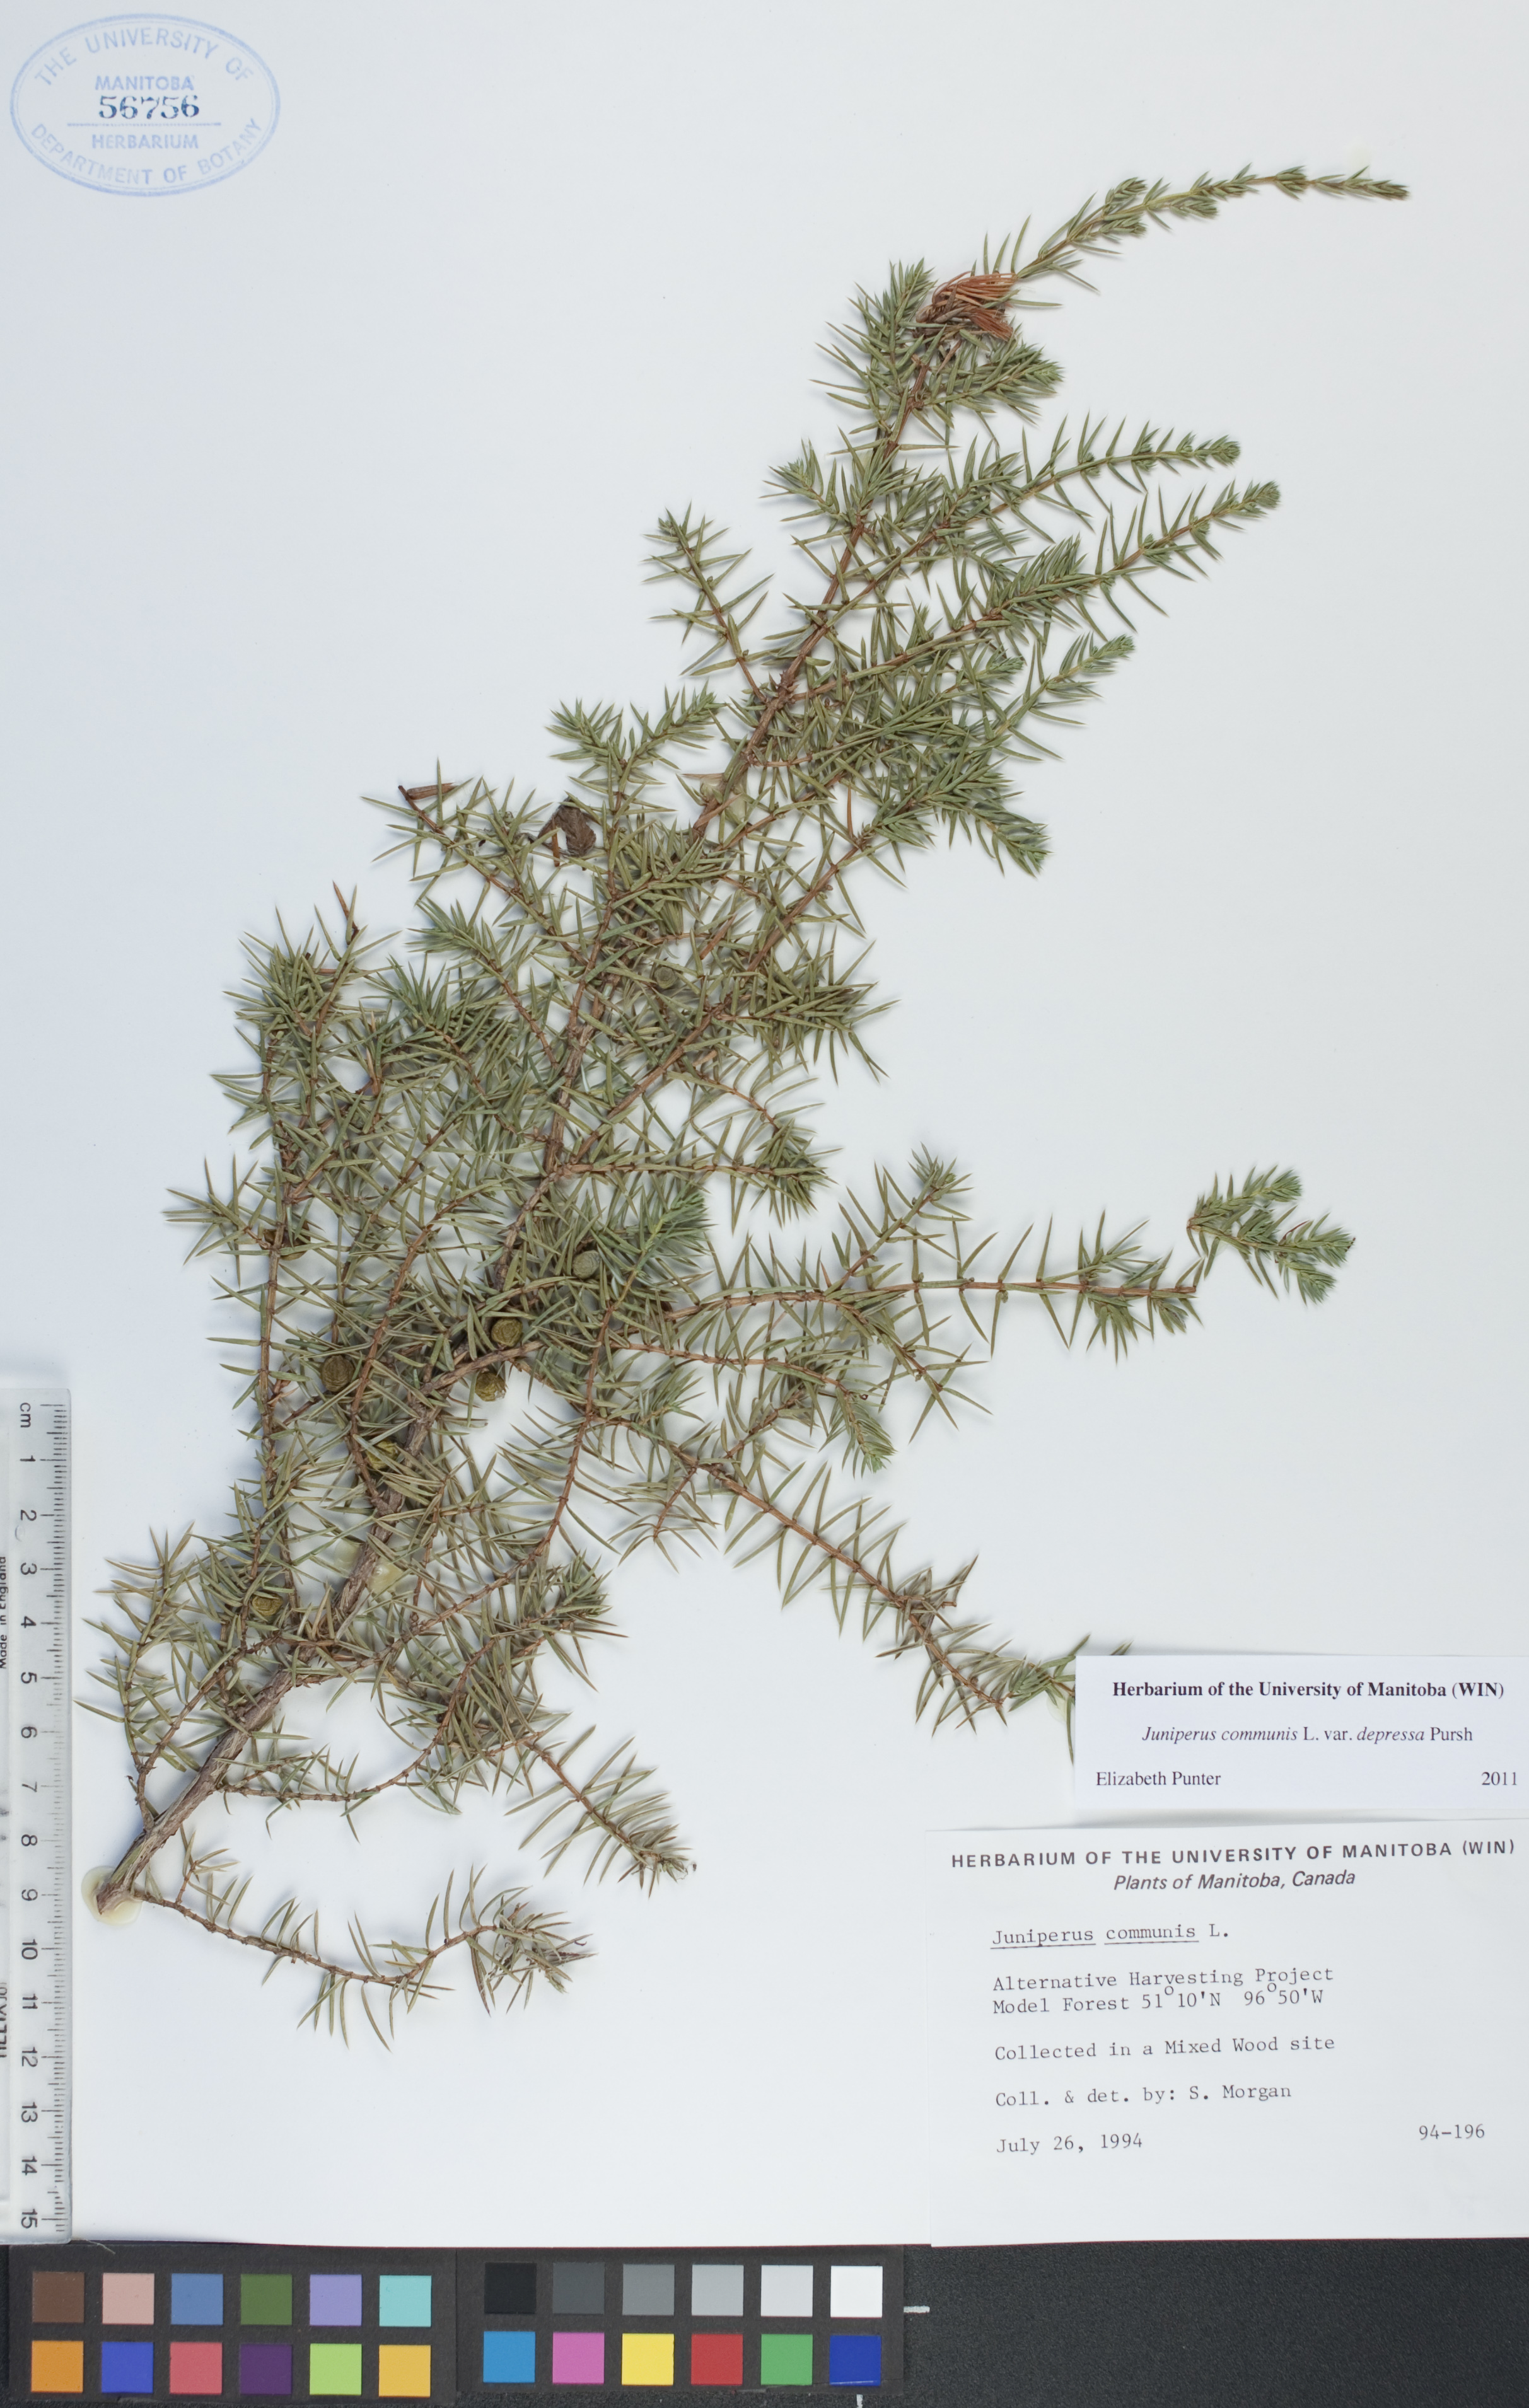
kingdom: Plantae
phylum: Tracheophyta
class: Pinopsida
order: Pinales
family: Cupressaceae
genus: Juniperus
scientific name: Juniperus communis
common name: Common juniper
